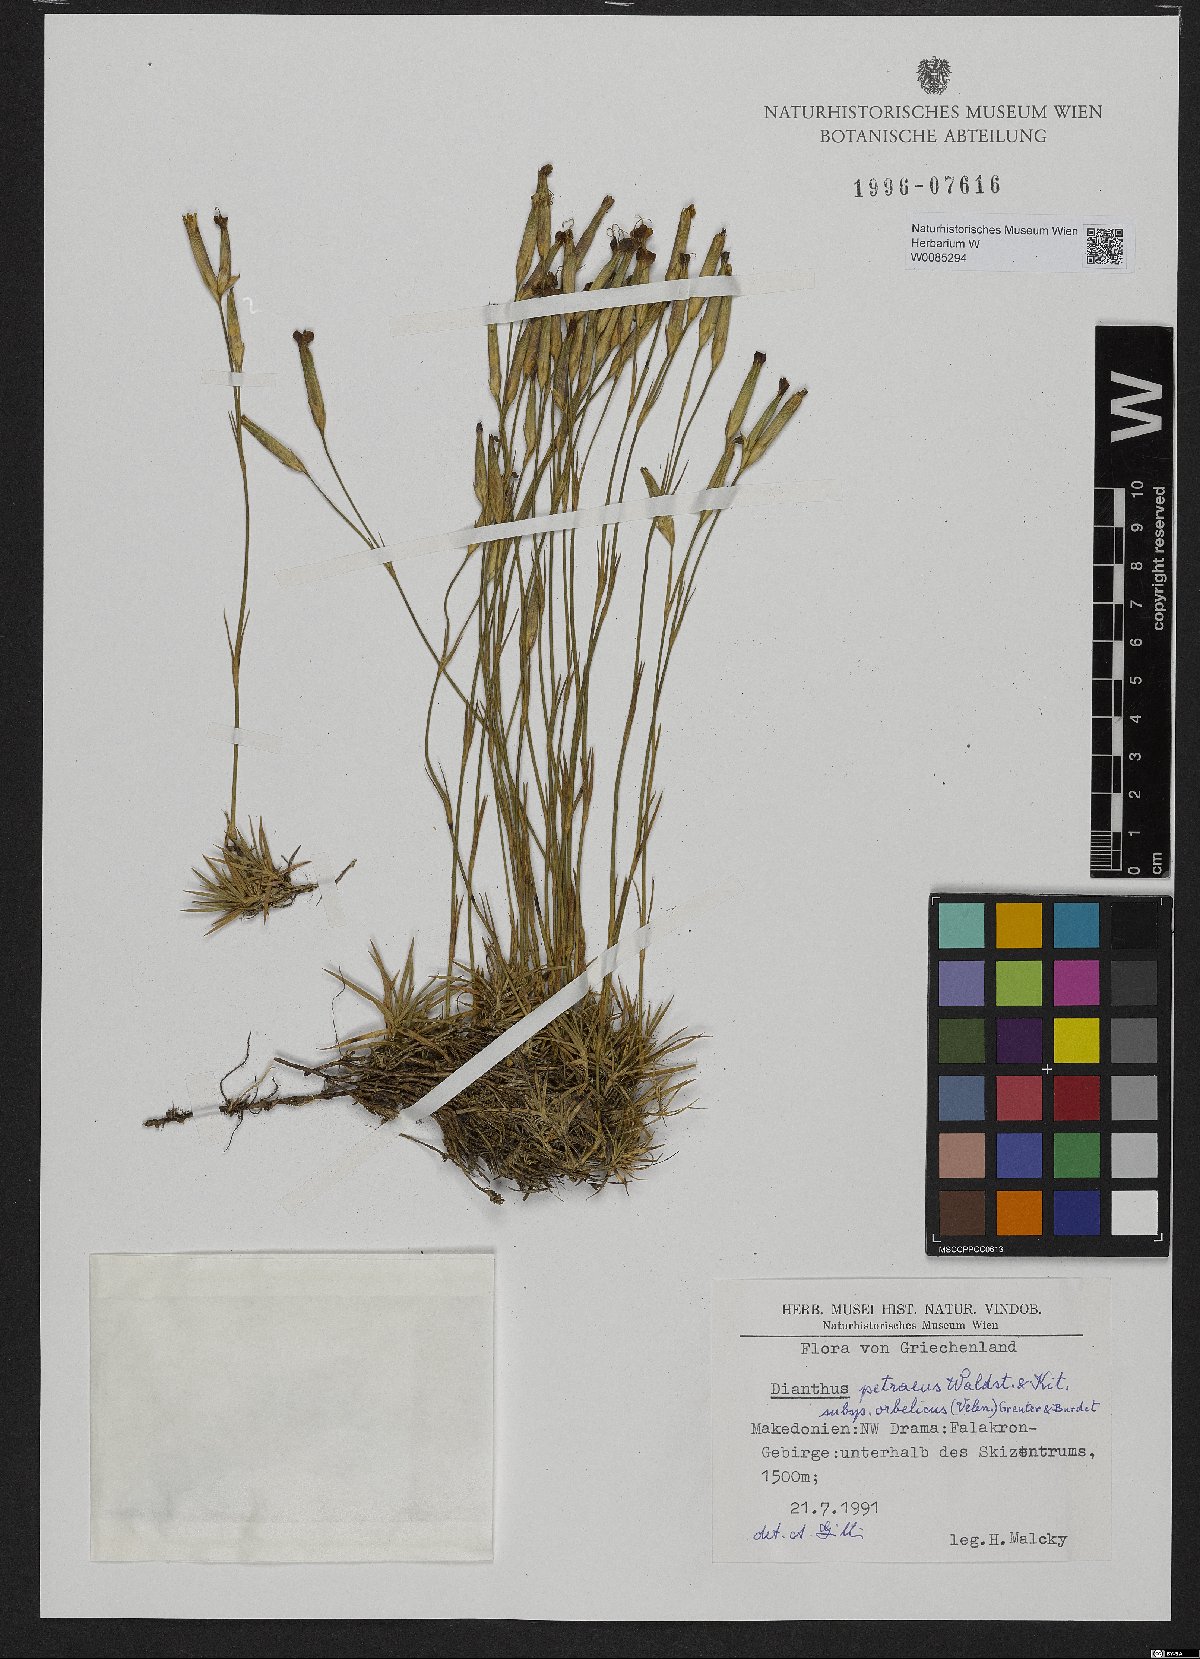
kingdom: Plantae
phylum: Tracheophyta
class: Magnoliopsida
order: Caryophyllales
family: Caryophyllaceae
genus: Dianthus
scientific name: Dianthus petraeus
